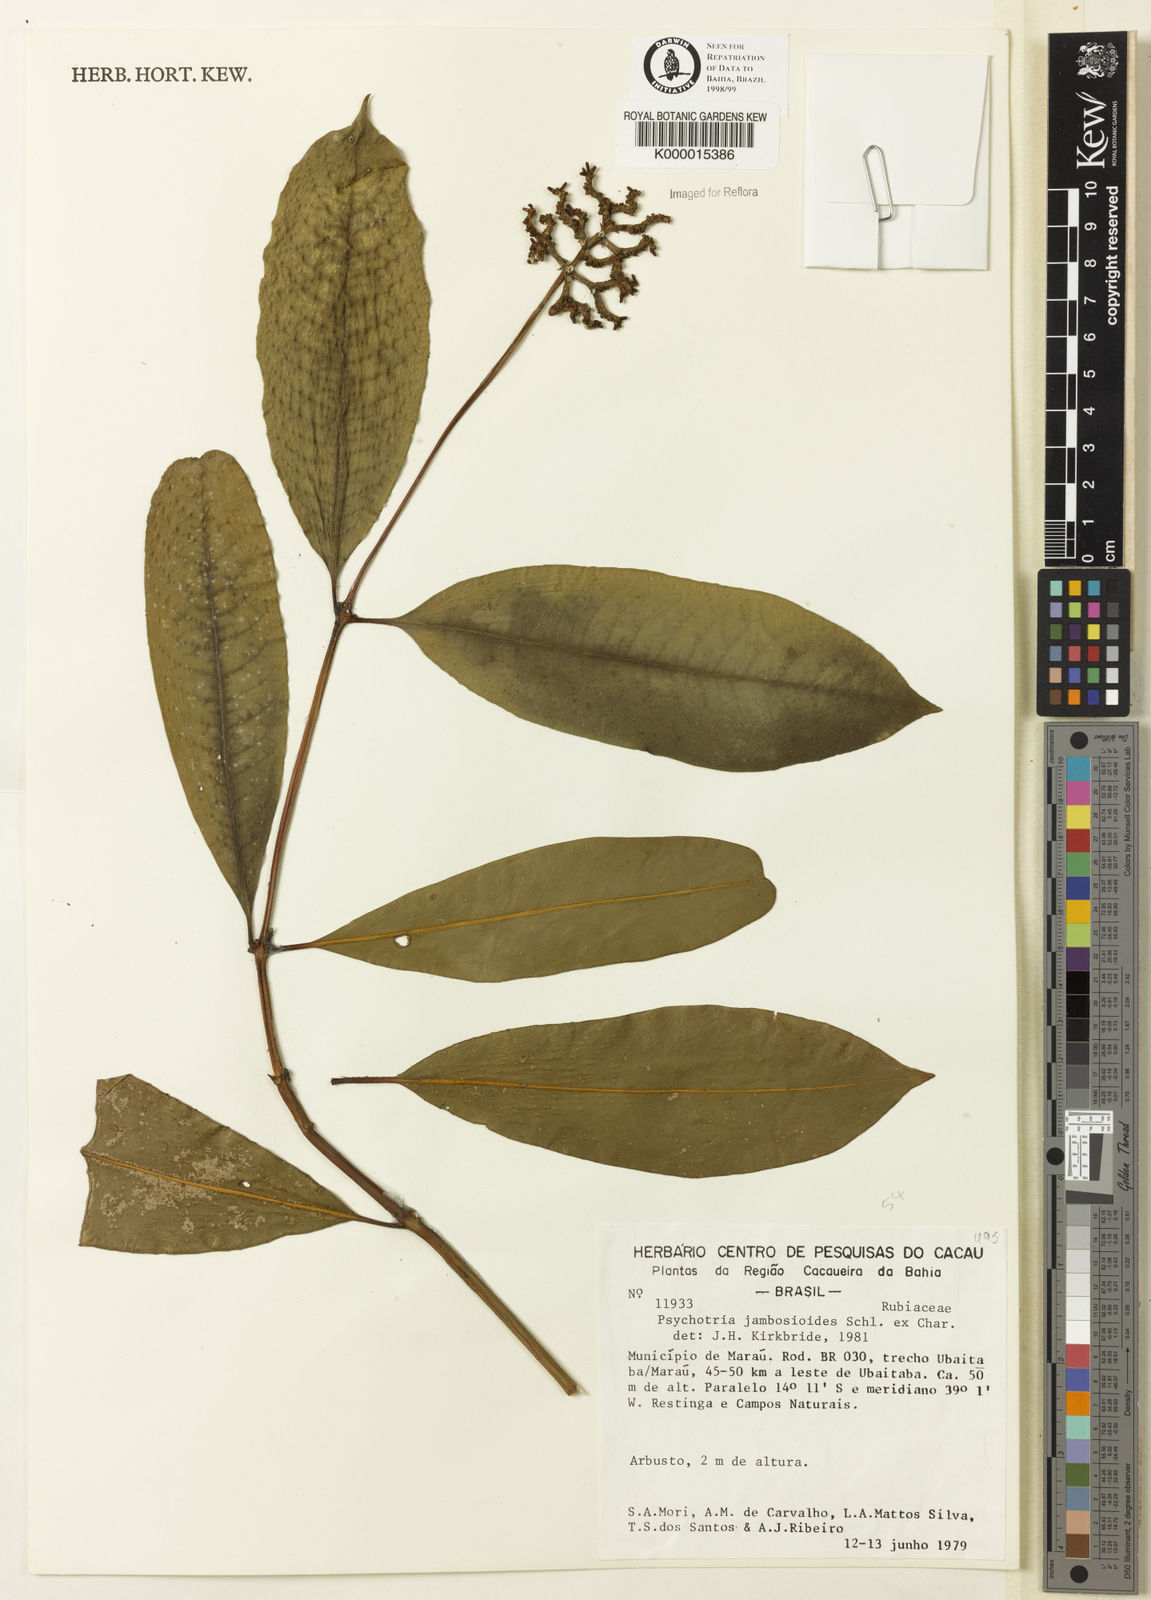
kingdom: Plantae
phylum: Tracheophyta
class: Magnoliopsida
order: Gentianales
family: Rubiaceae
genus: Palicourea
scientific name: Palicourea jambosioides
